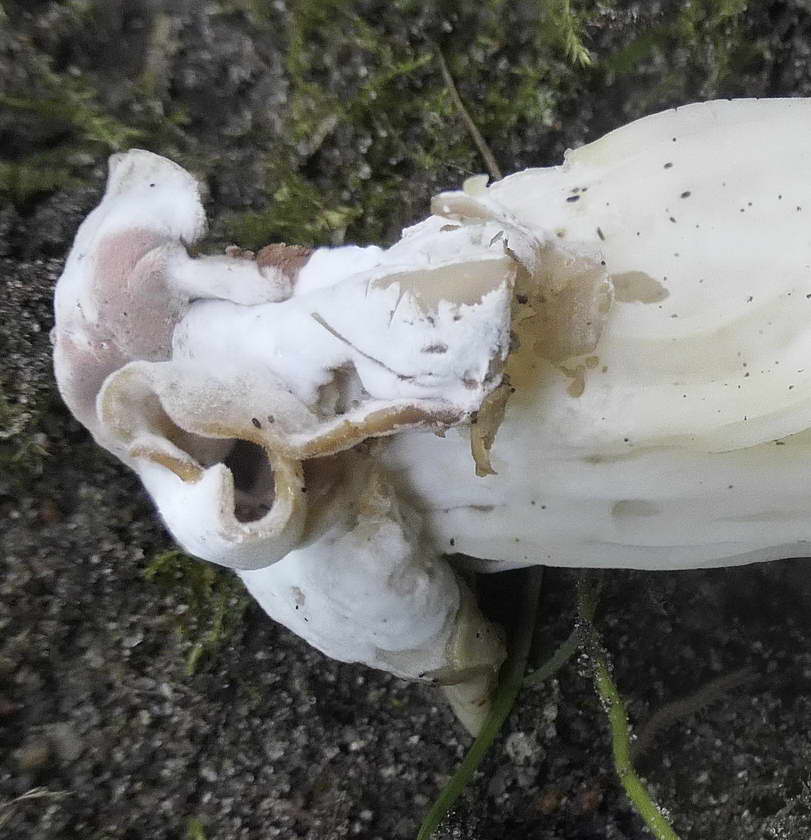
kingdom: Fungi
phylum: Ascomycota
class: Sordariomycetes
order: Hypocreales
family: Hypocreaceae
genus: Hypomyces
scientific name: Hypomyces cervinus
